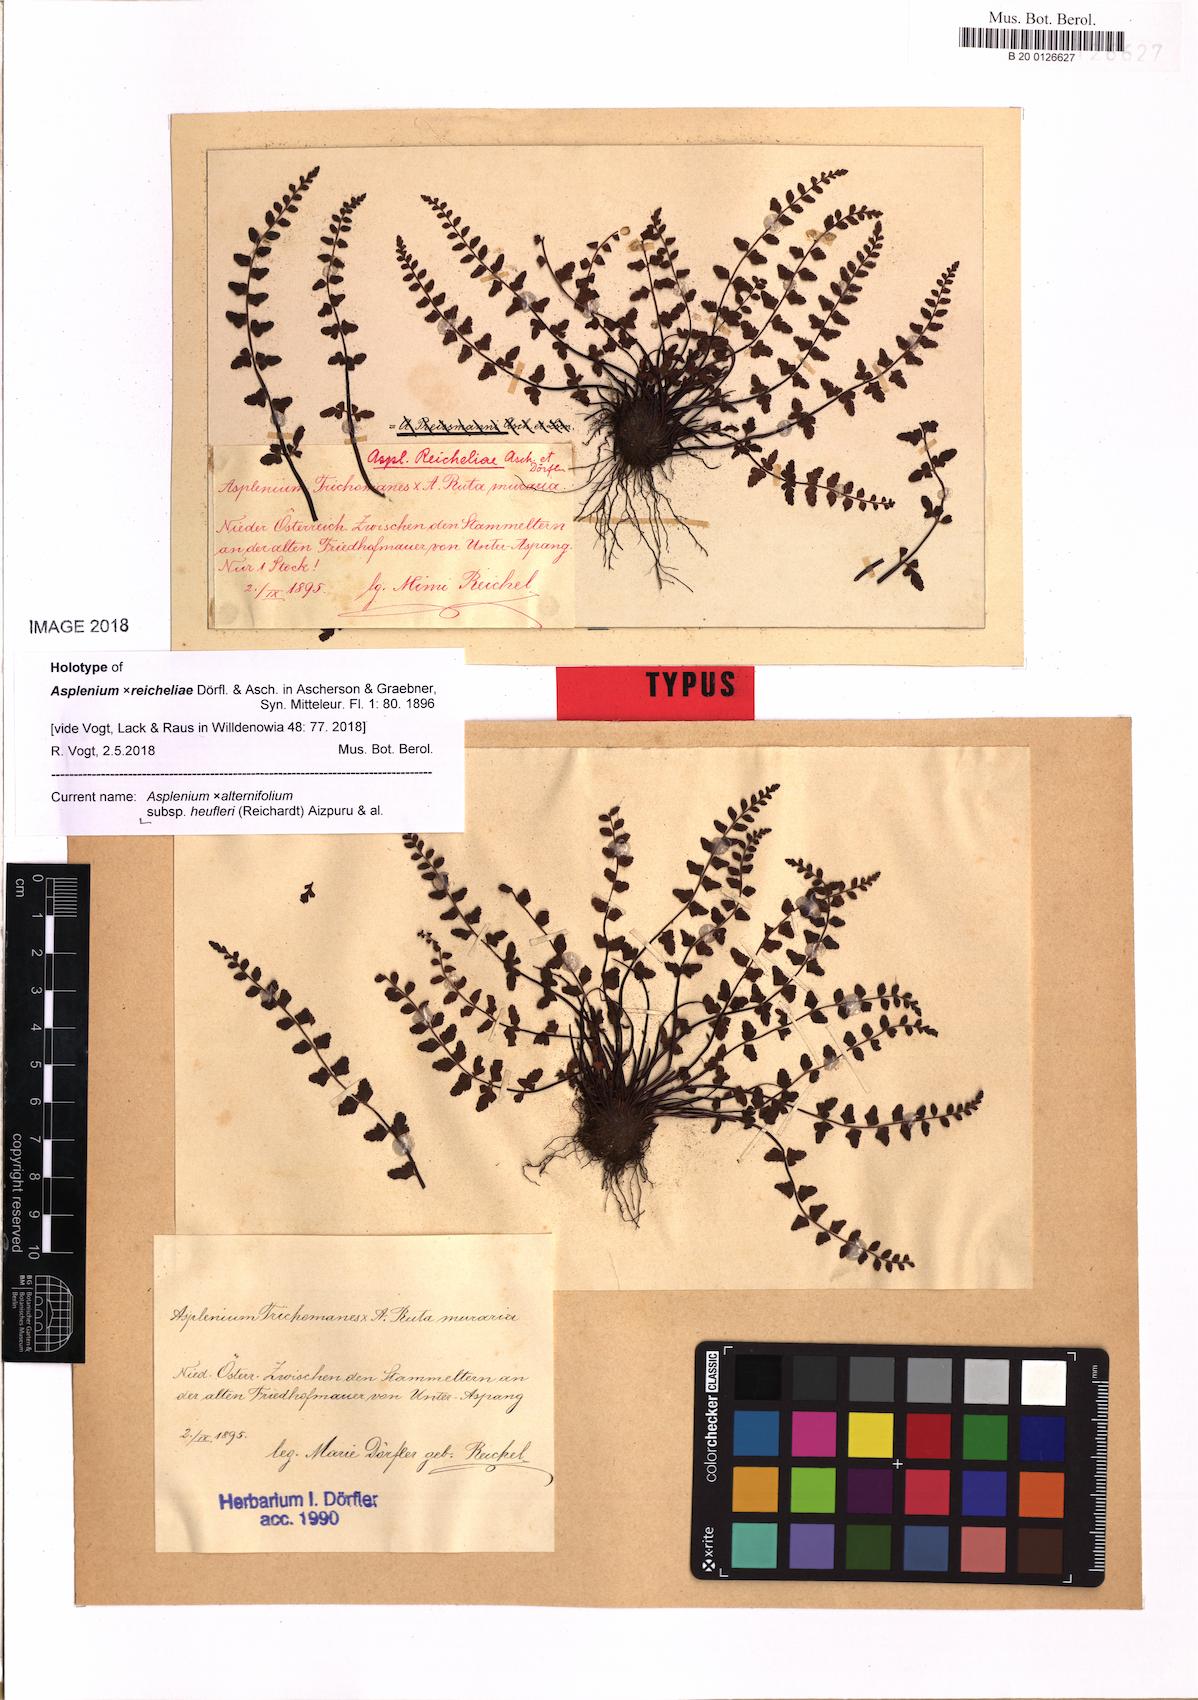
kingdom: Plantae
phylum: Tracheophyta
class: Polypodiopsida
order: Polypodiales
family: Aspleniaceae
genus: Asplenium
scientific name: Asplenium heufleri
